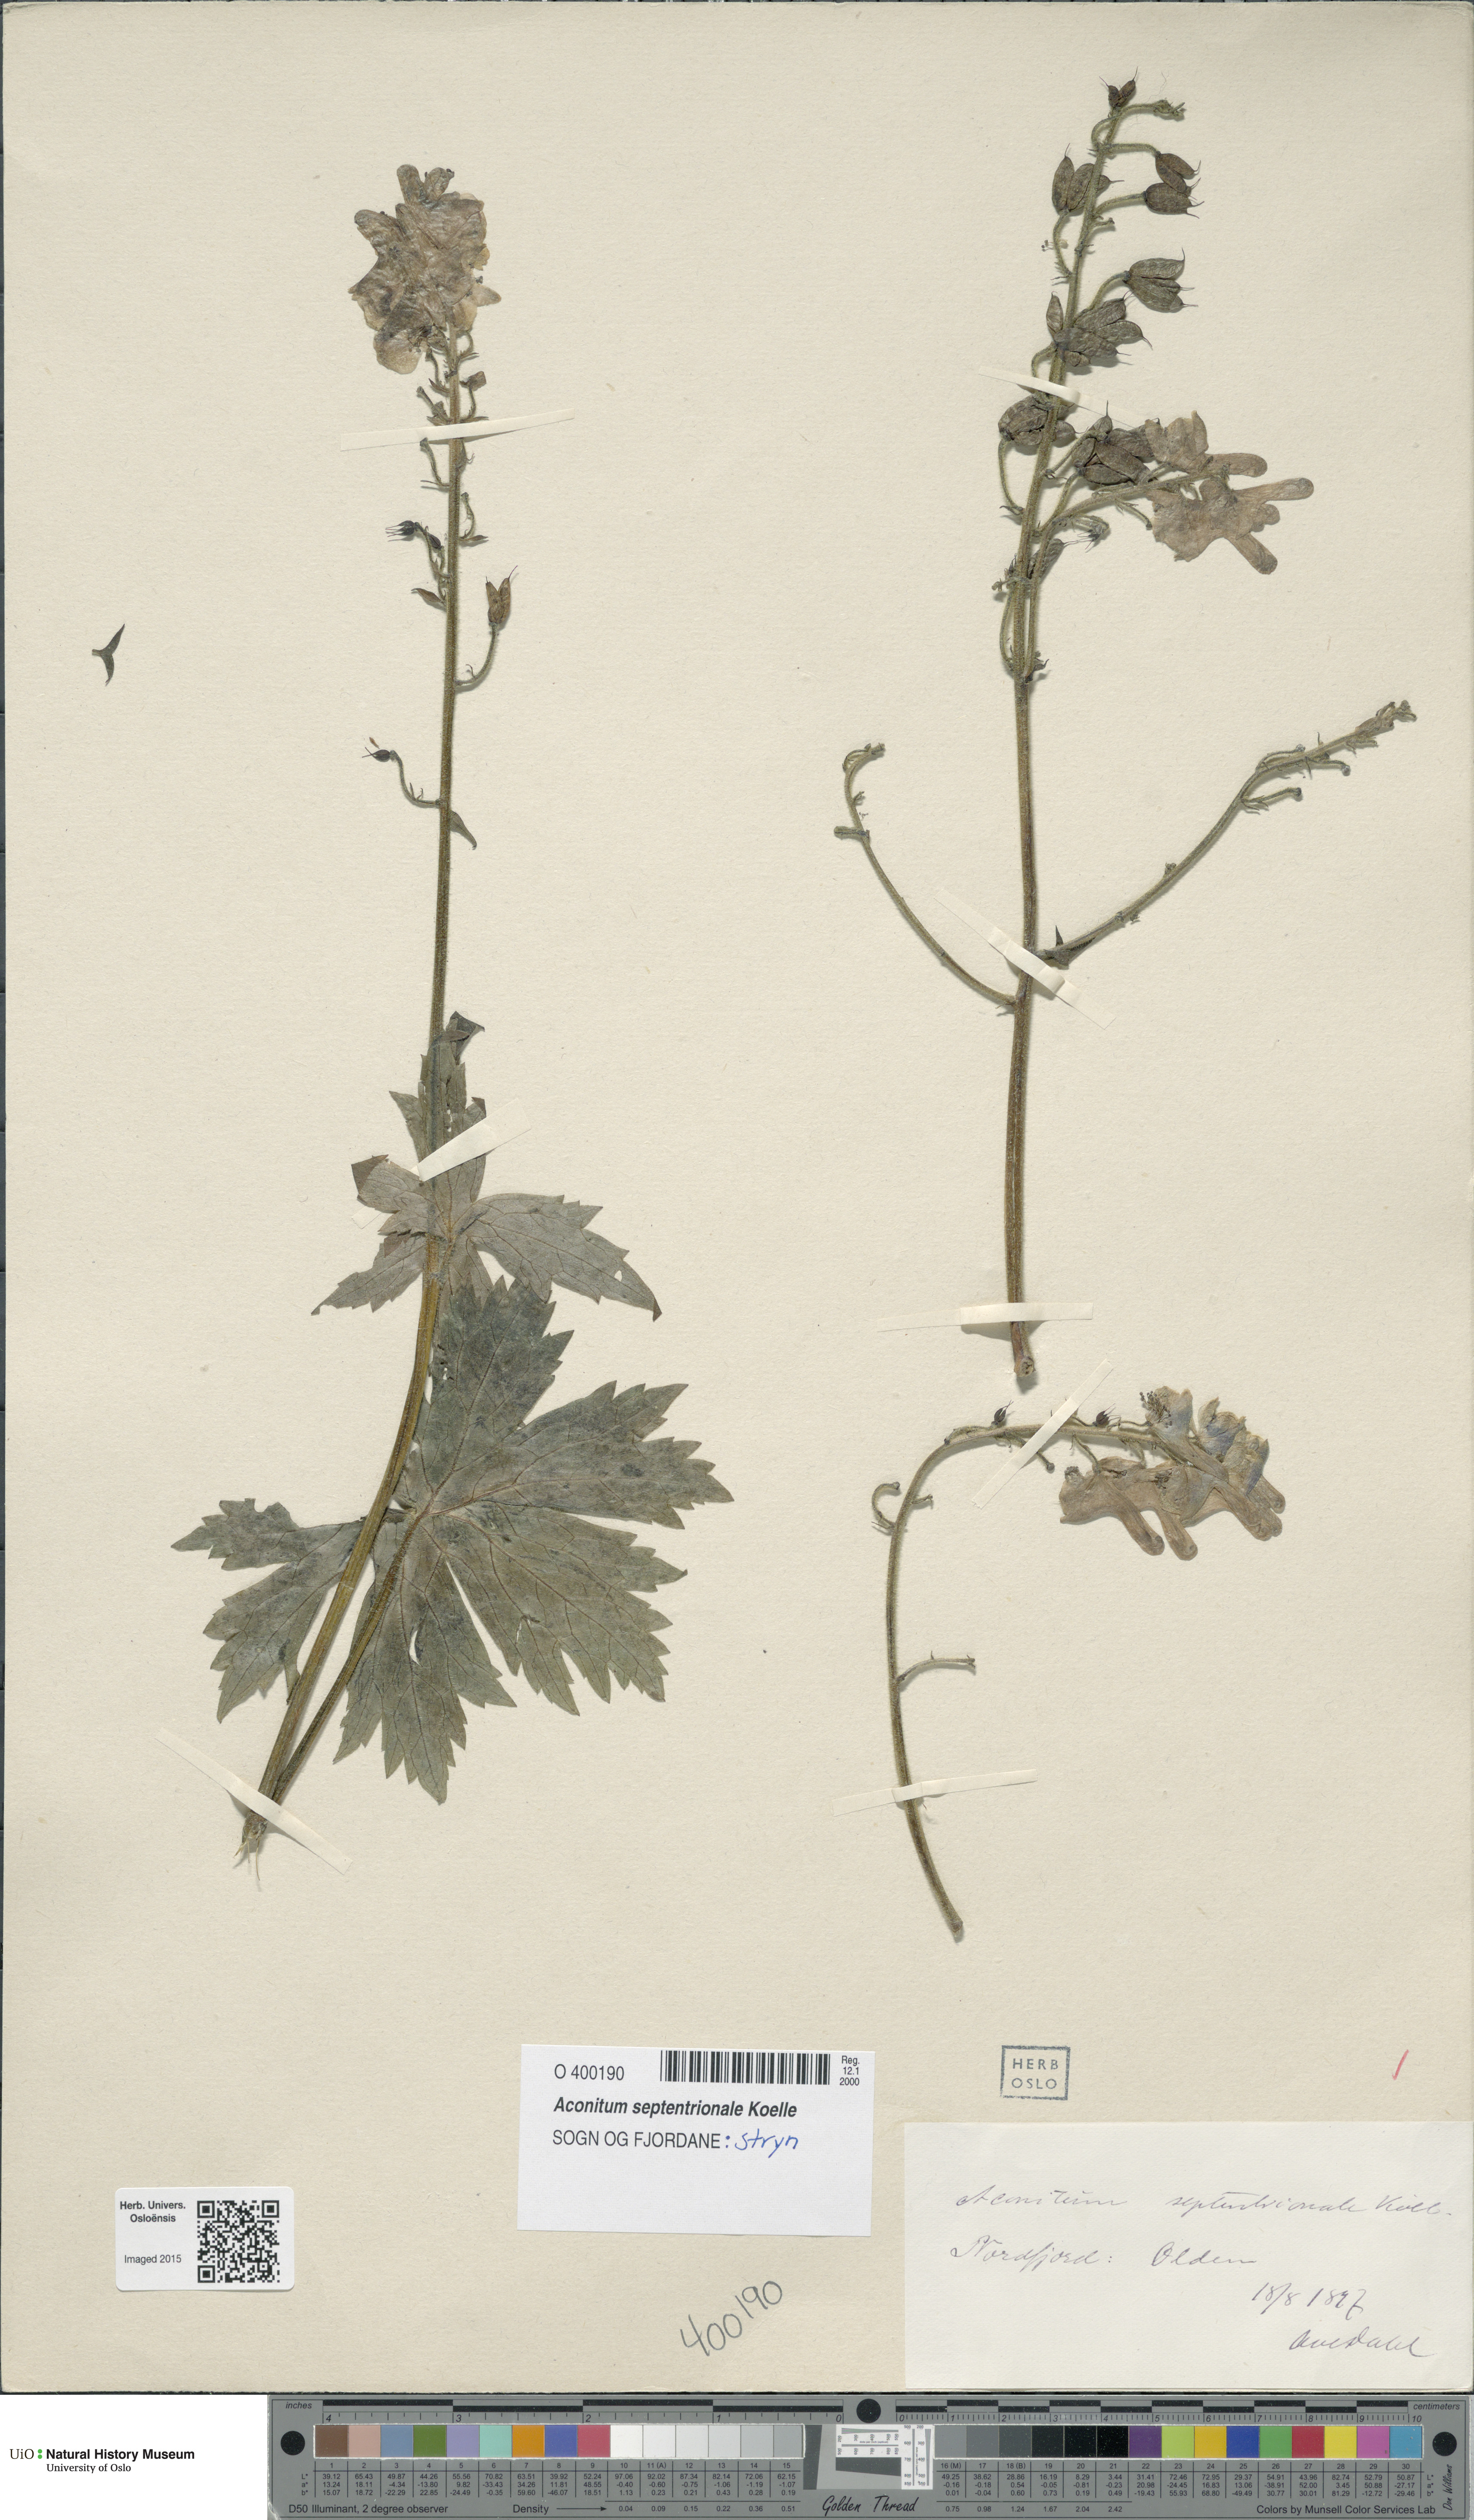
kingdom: Plantae
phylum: Tracheophyta
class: Magnoliopsida
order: Ranunculales
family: Ranunculaceae
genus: Aconitum
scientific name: Aconitum septentrionale
